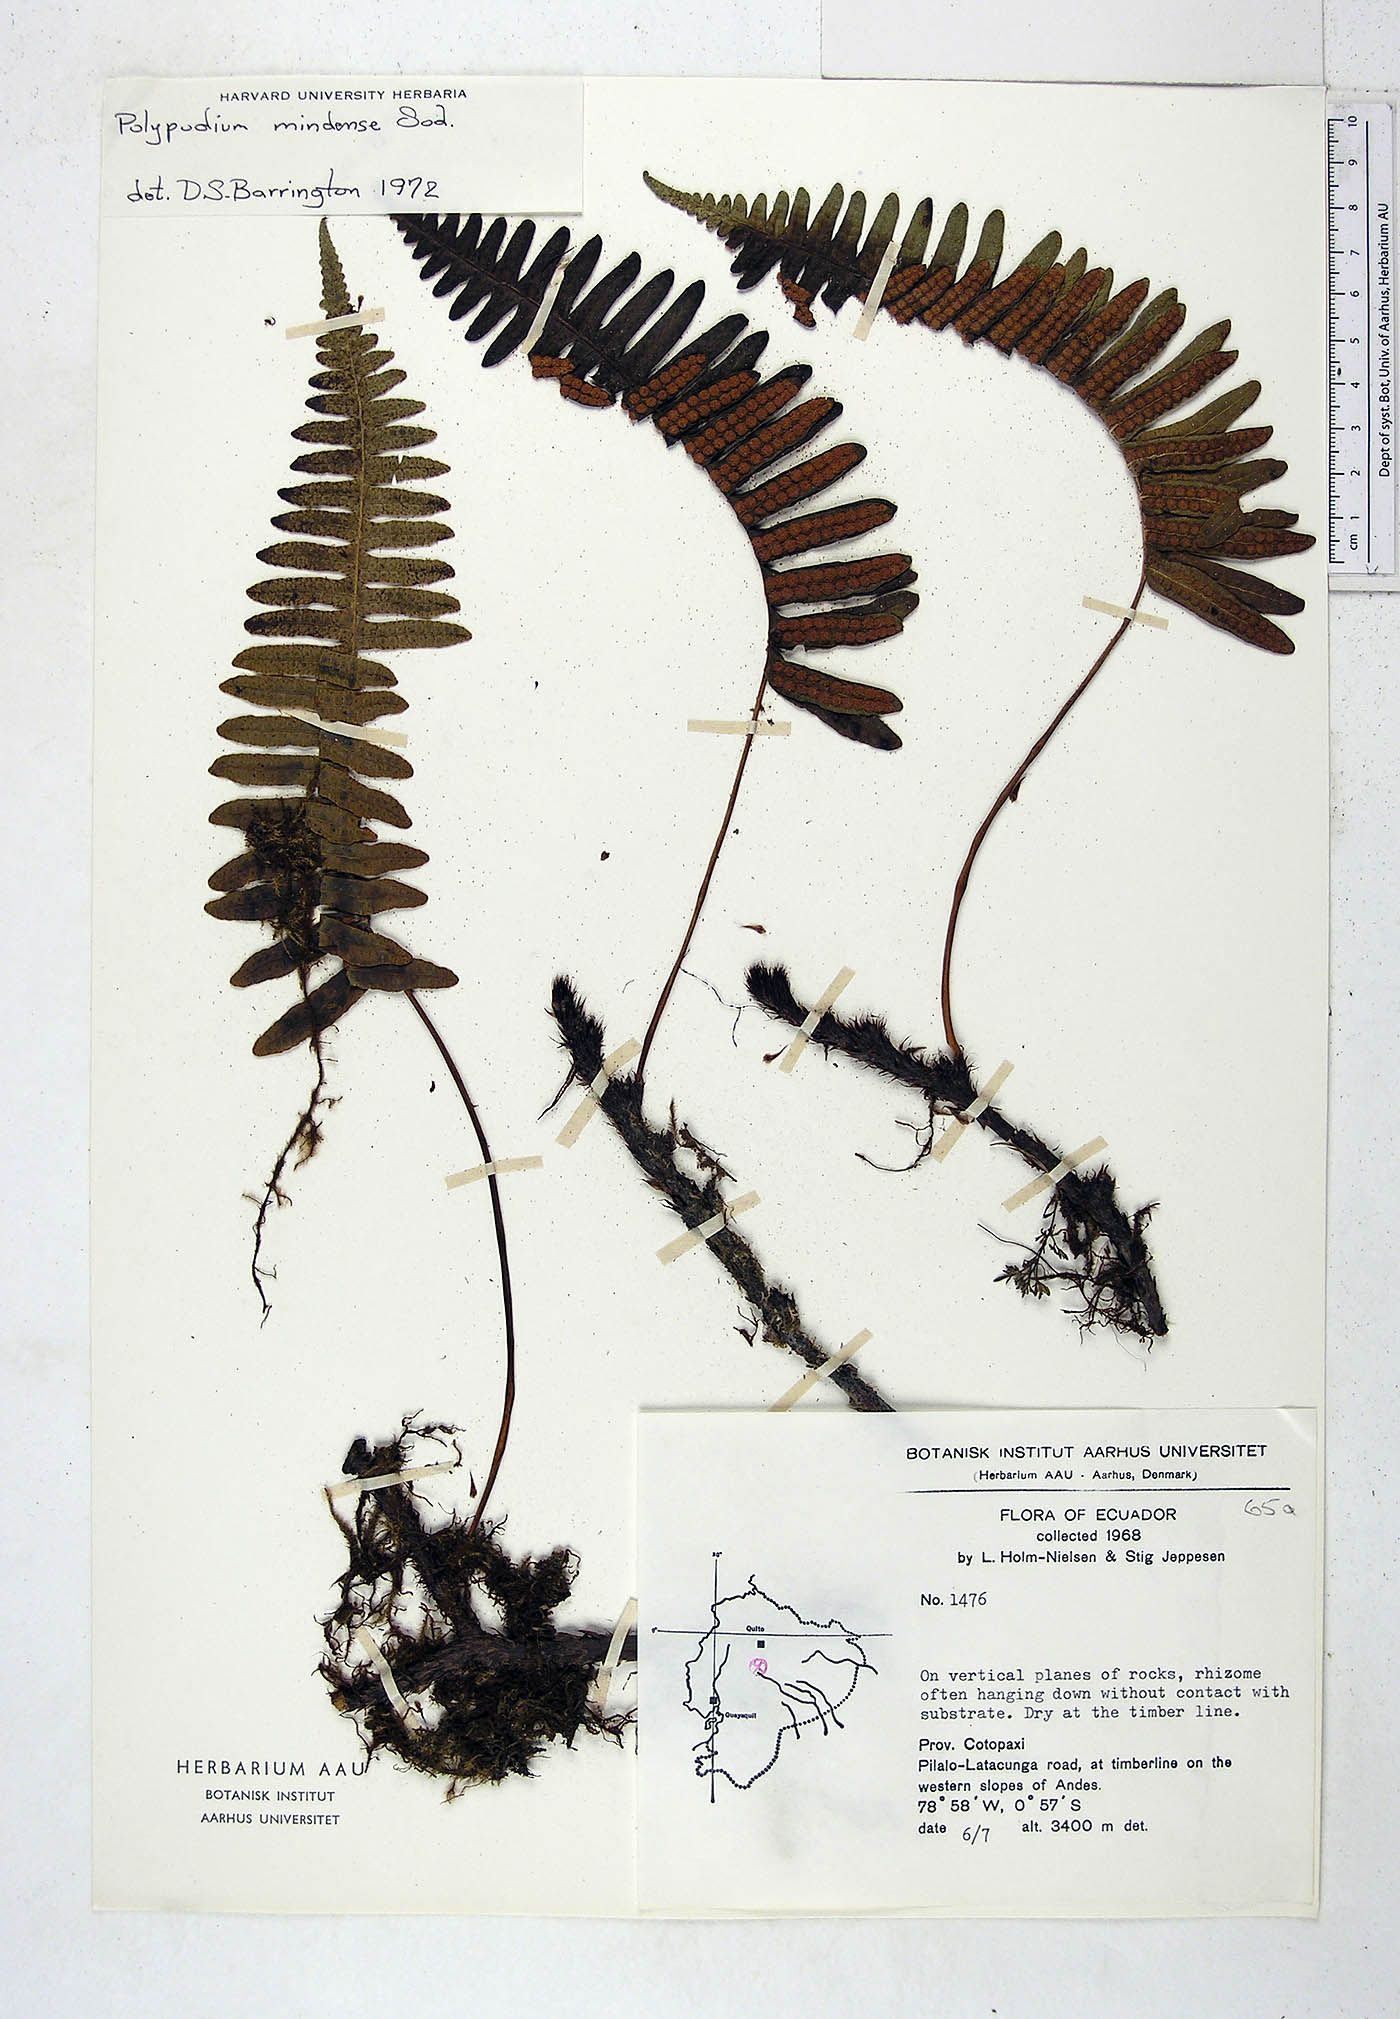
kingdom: Plantae
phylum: Tracheophyta
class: Polypodiopsida
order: Polypodiales
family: Polypodiaceae
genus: Serpocaulon
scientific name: Serpocaulon eleutherophlebium
